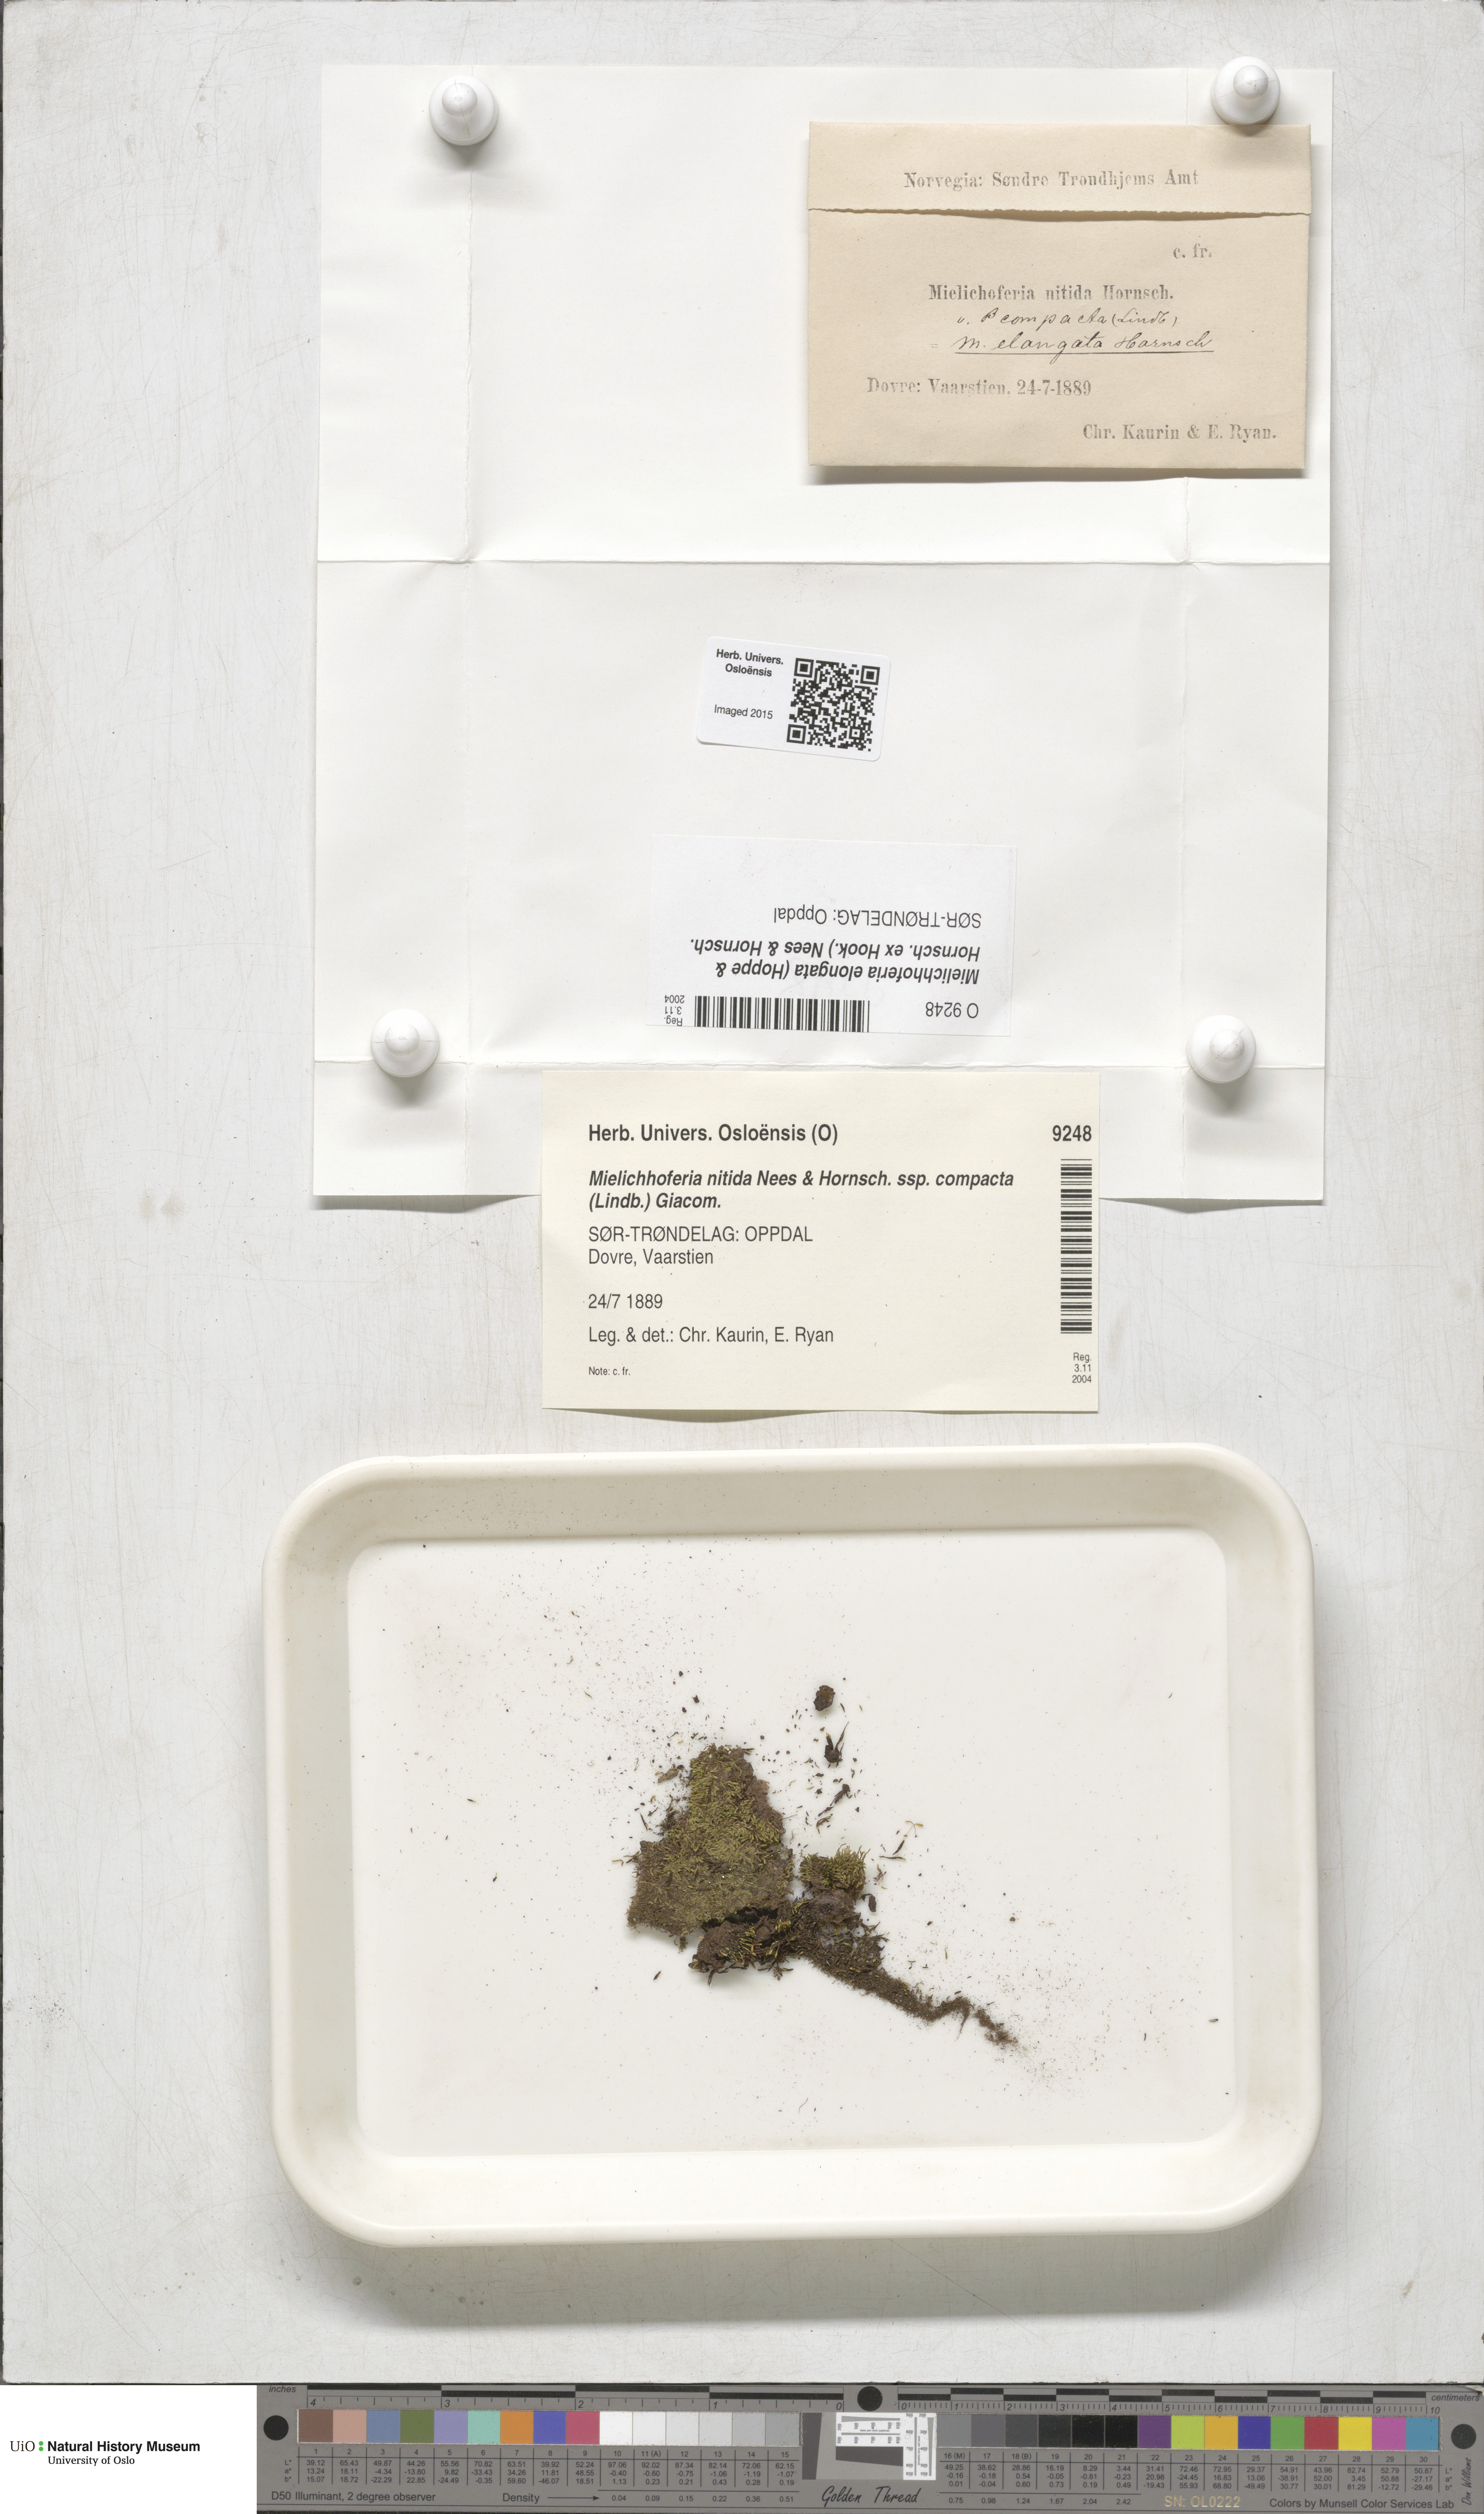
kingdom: Plantae
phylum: Bryophyta
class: Bryopsida
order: Bryales
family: Mniaceae
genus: Mielichhoferia
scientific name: Mielichhoferia elongata
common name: Elongate copper moss
